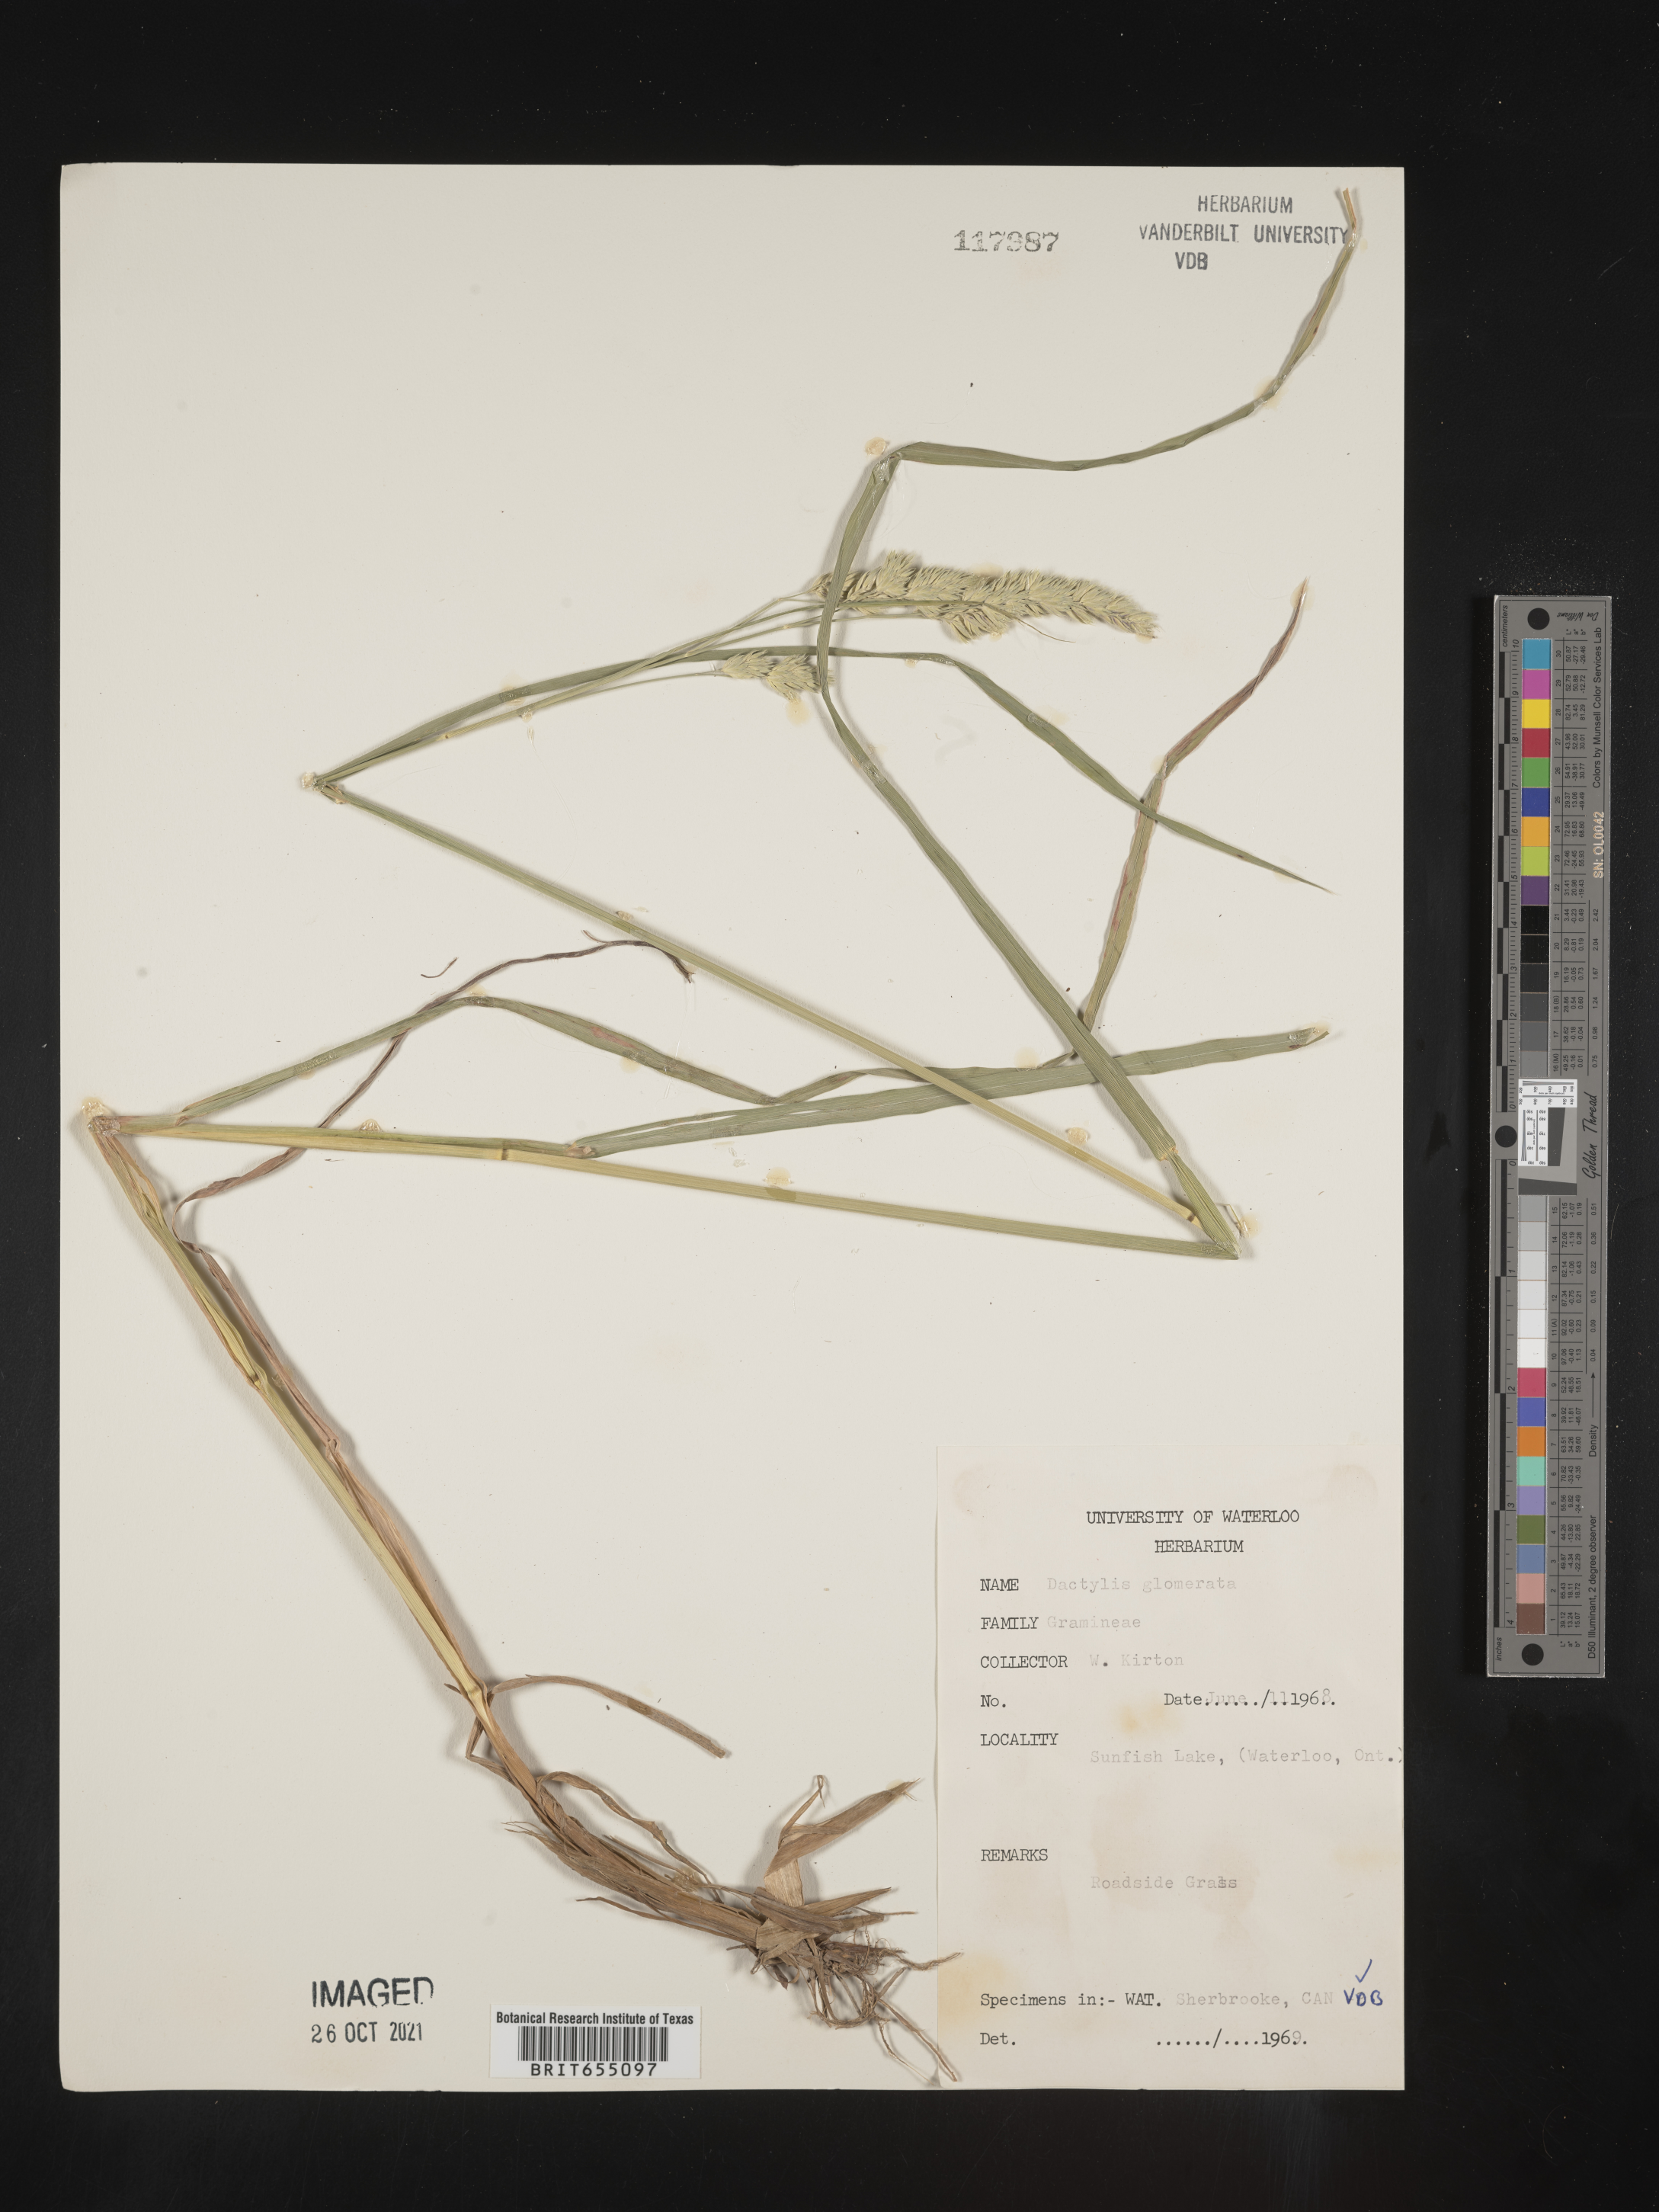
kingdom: Plantae
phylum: Tracheophyta
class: Liliopsida
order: Poales
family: Poaceae
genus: Dactylis
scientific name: Dactylis
